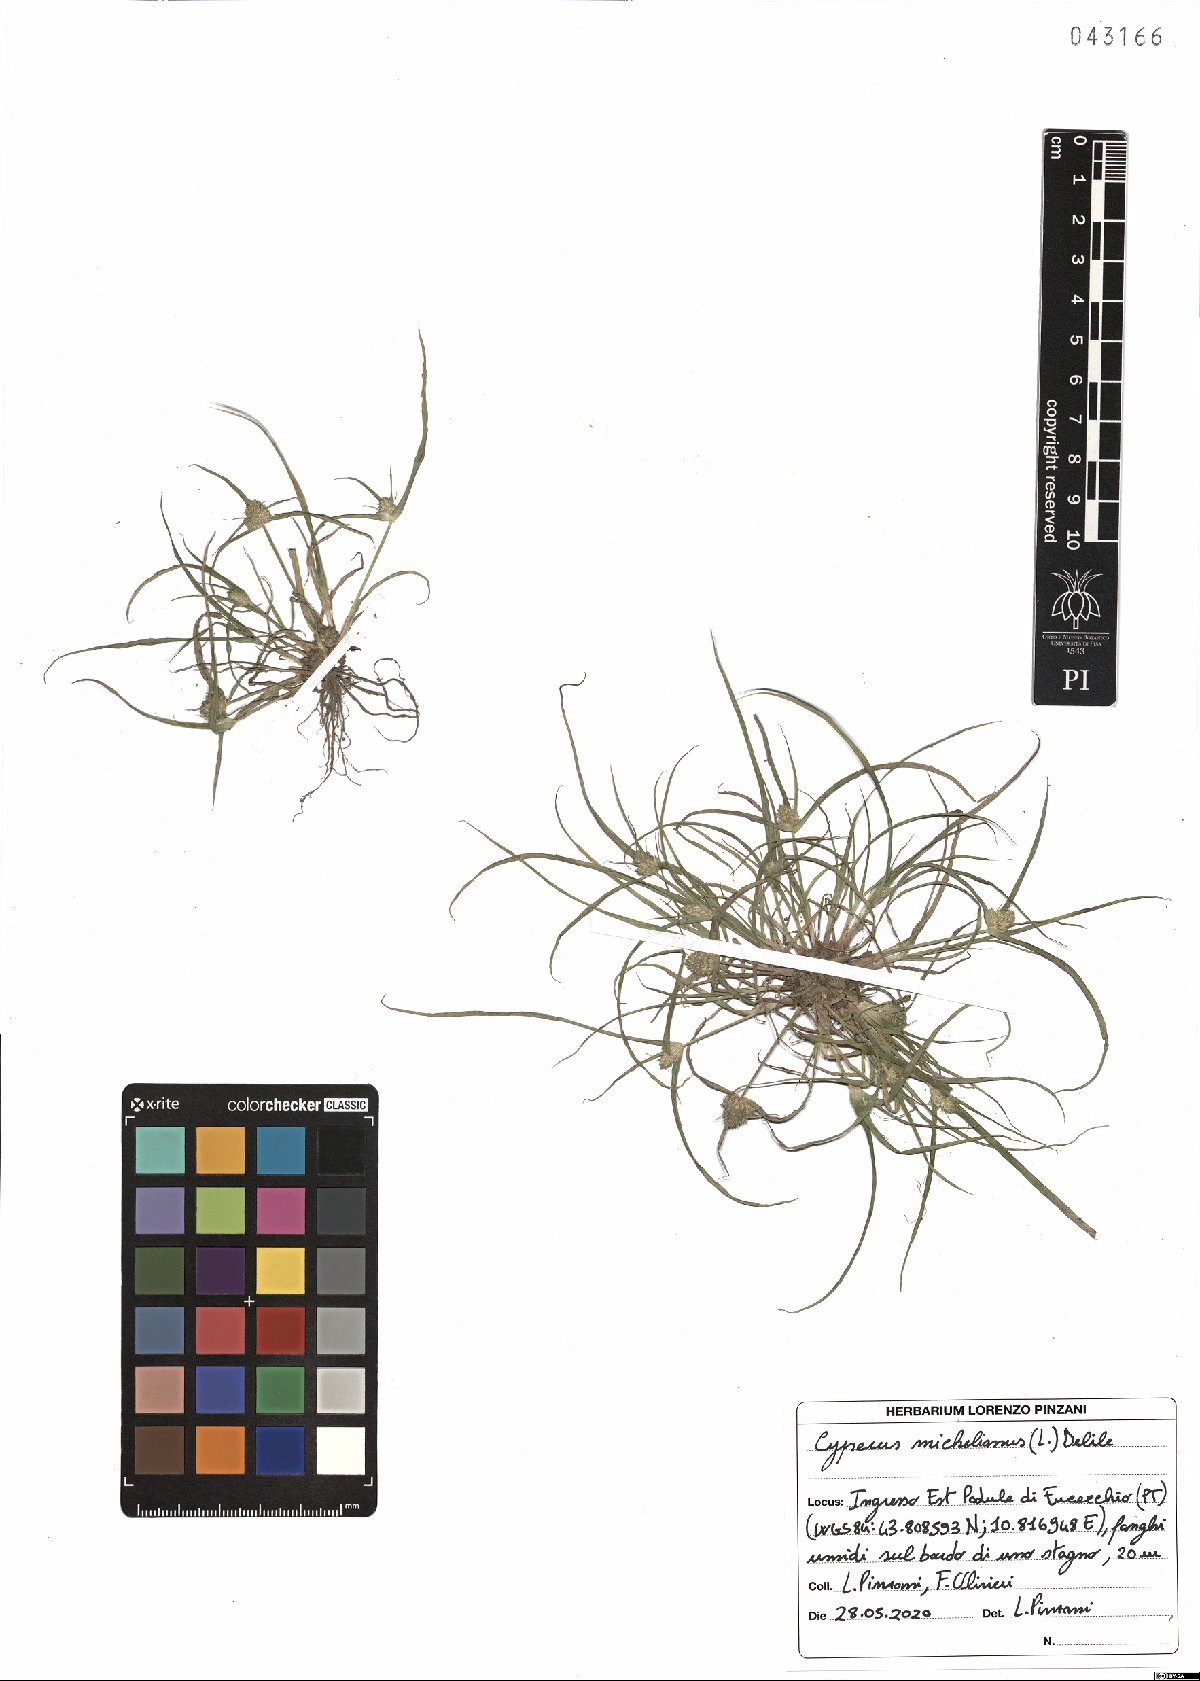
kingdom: Plantae
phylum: Tracheophyta
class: Liliopsida
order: Poales
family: Cyperaceae
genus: Cyperus
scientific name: Cyperus michelianus
